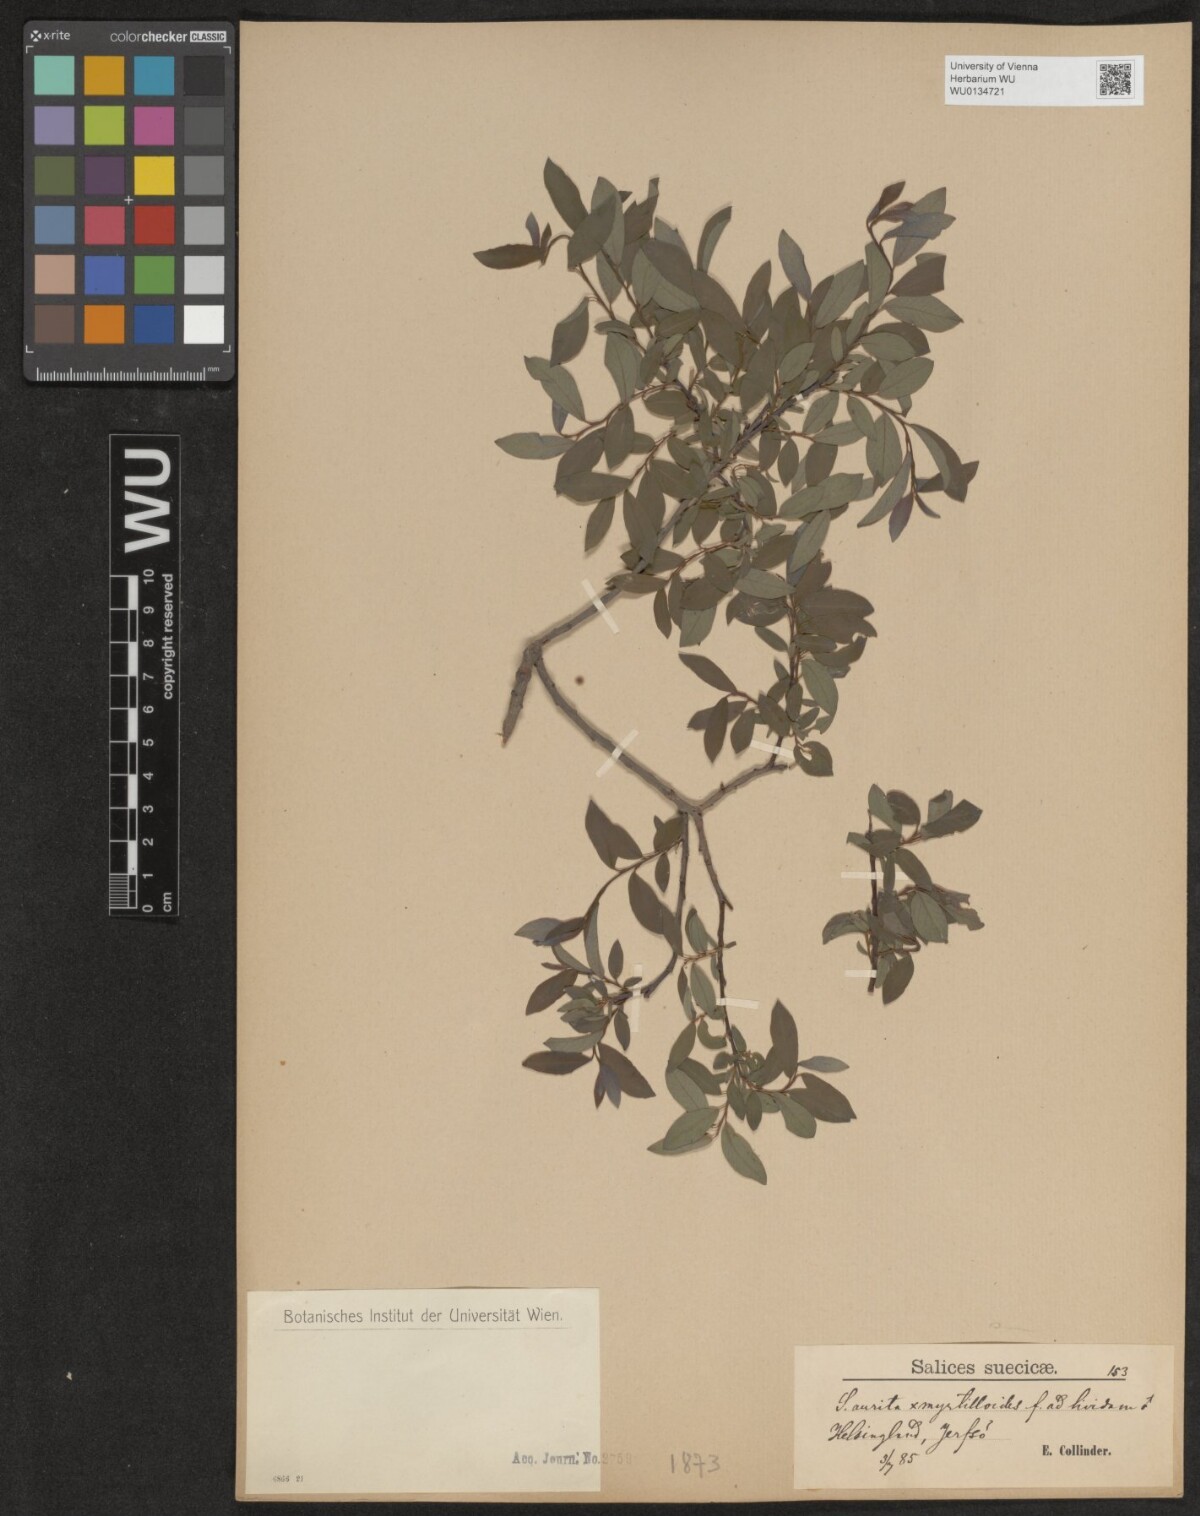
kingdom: Plantae
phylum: Tracheophyta
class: Magnoliopsida
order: Malpighiales
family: Salicaceae
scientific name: Salicaceae
